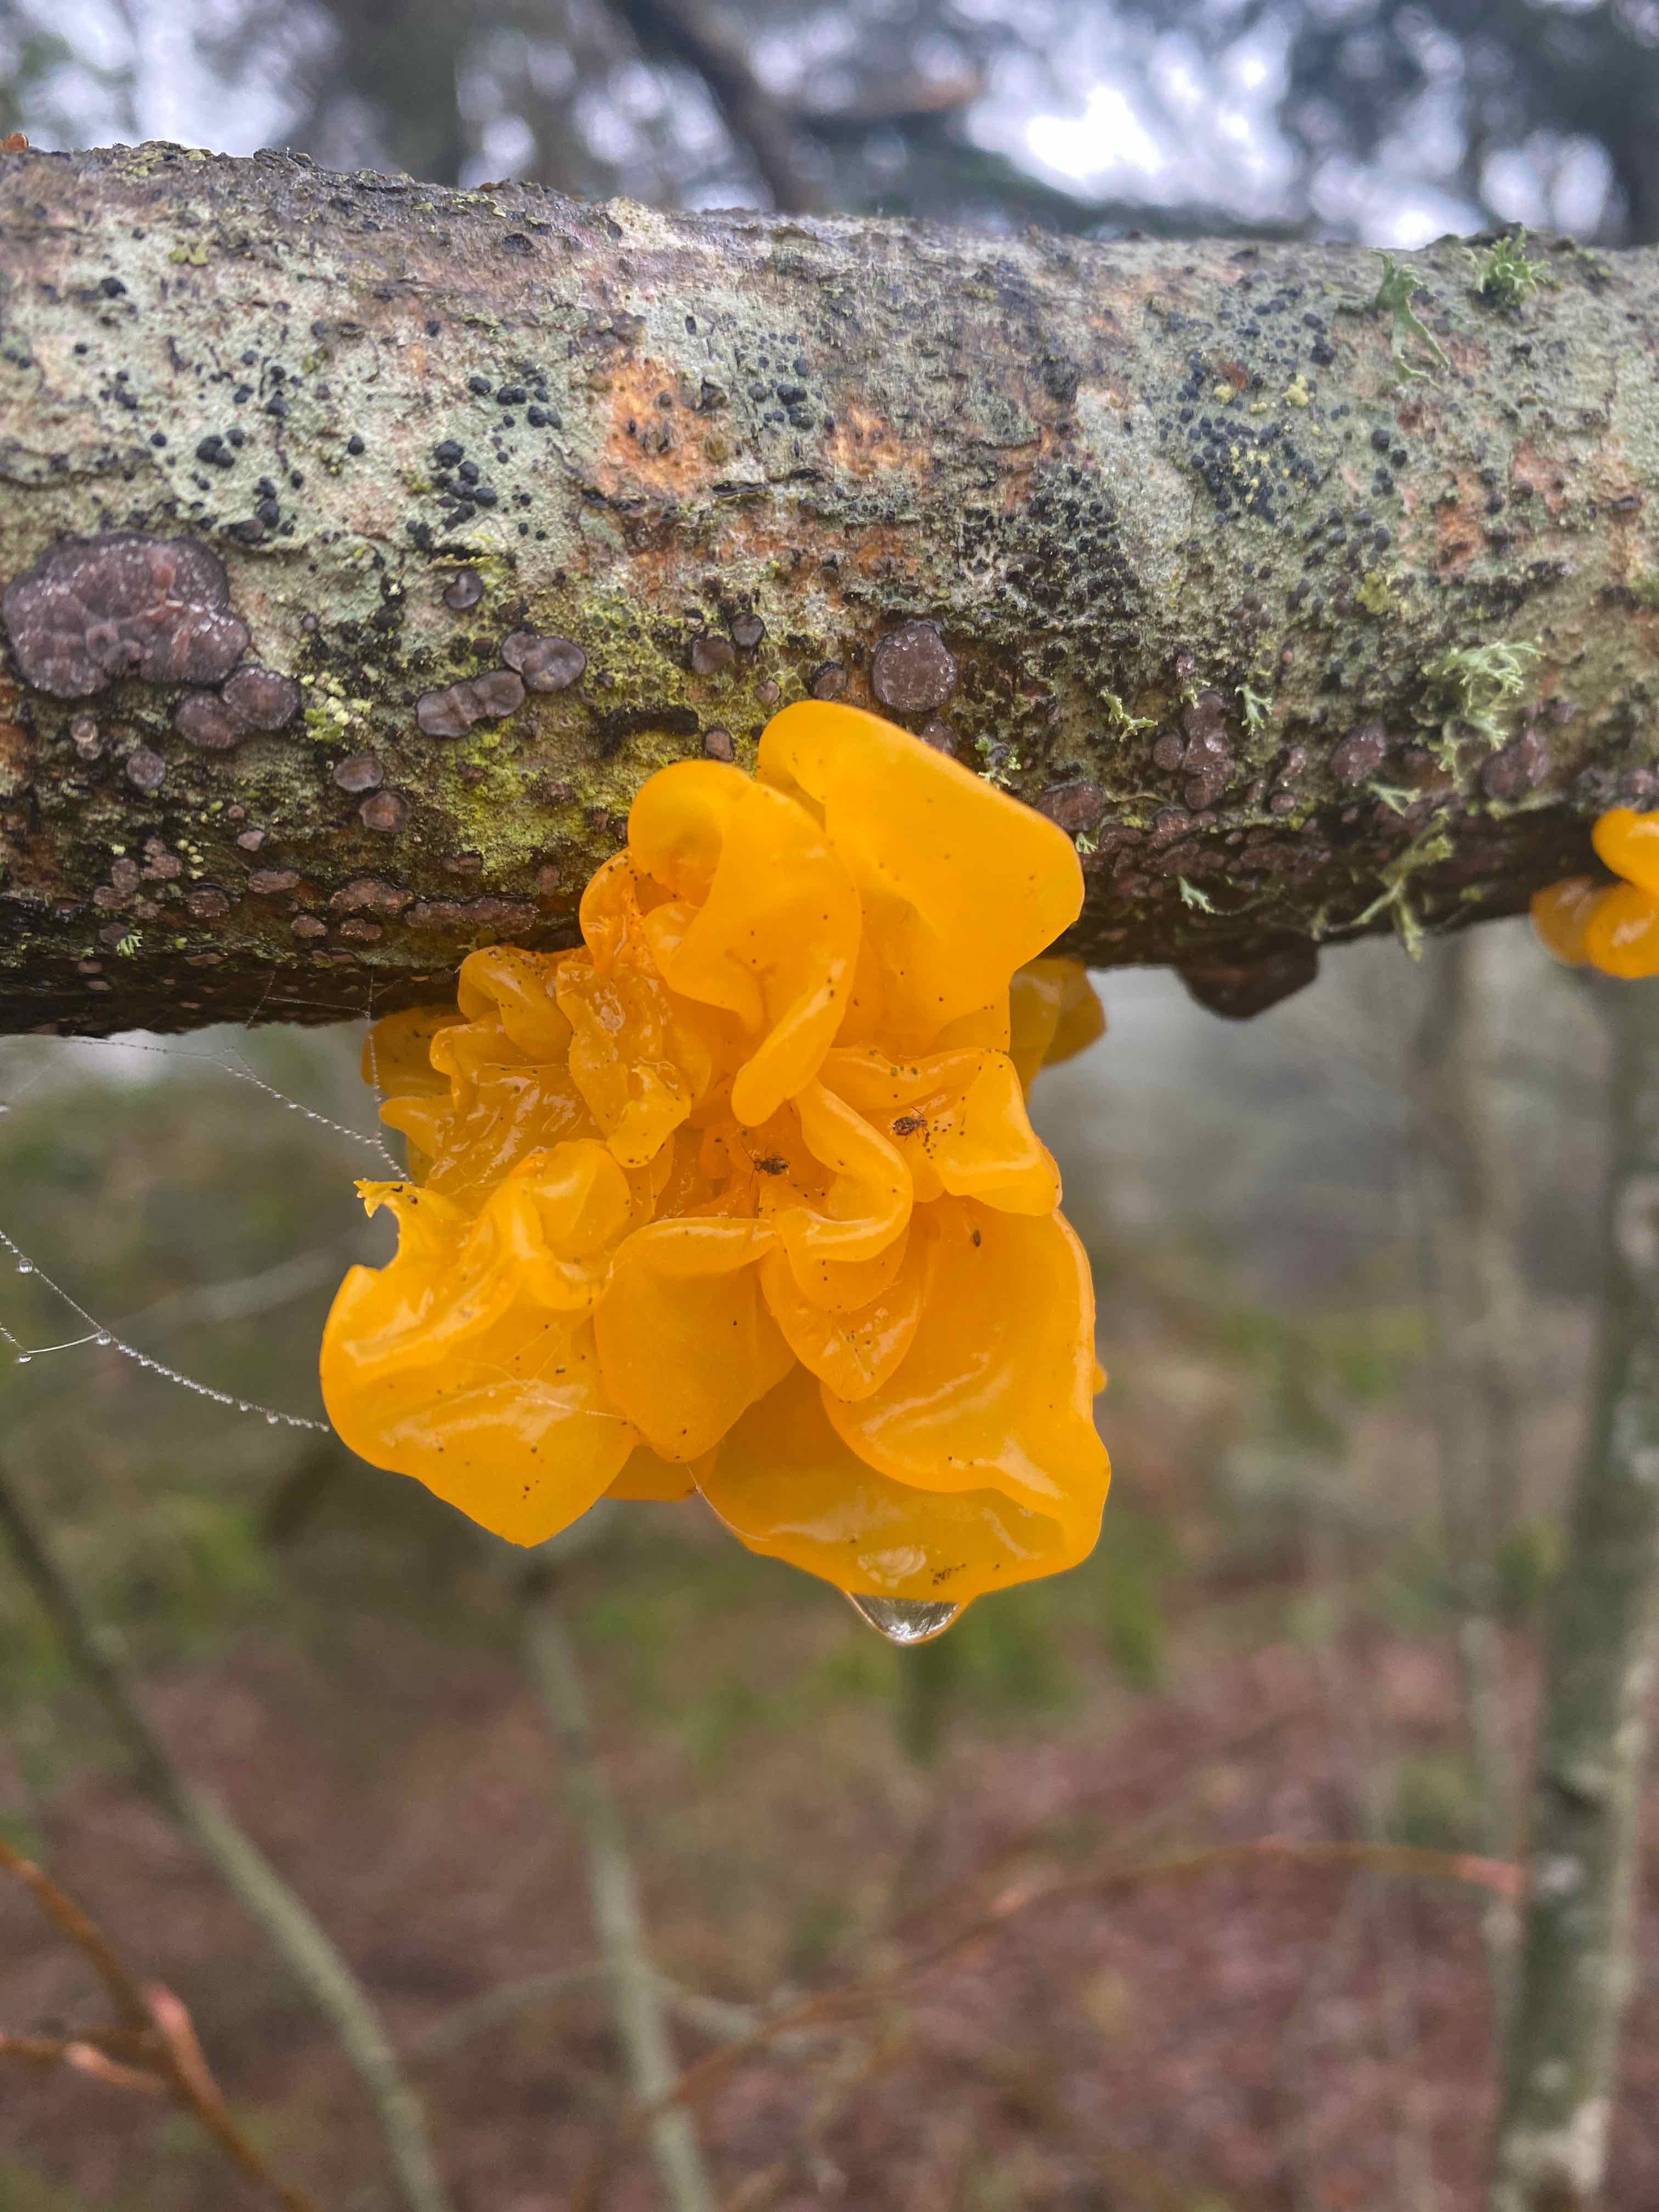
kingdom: Fungi
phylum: Basidiomycota
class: Tremellomycetes
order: Tremellales
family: Tremellaceae
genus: Tremella
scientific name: Tremella mesenterica
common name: gul bævresvamp
